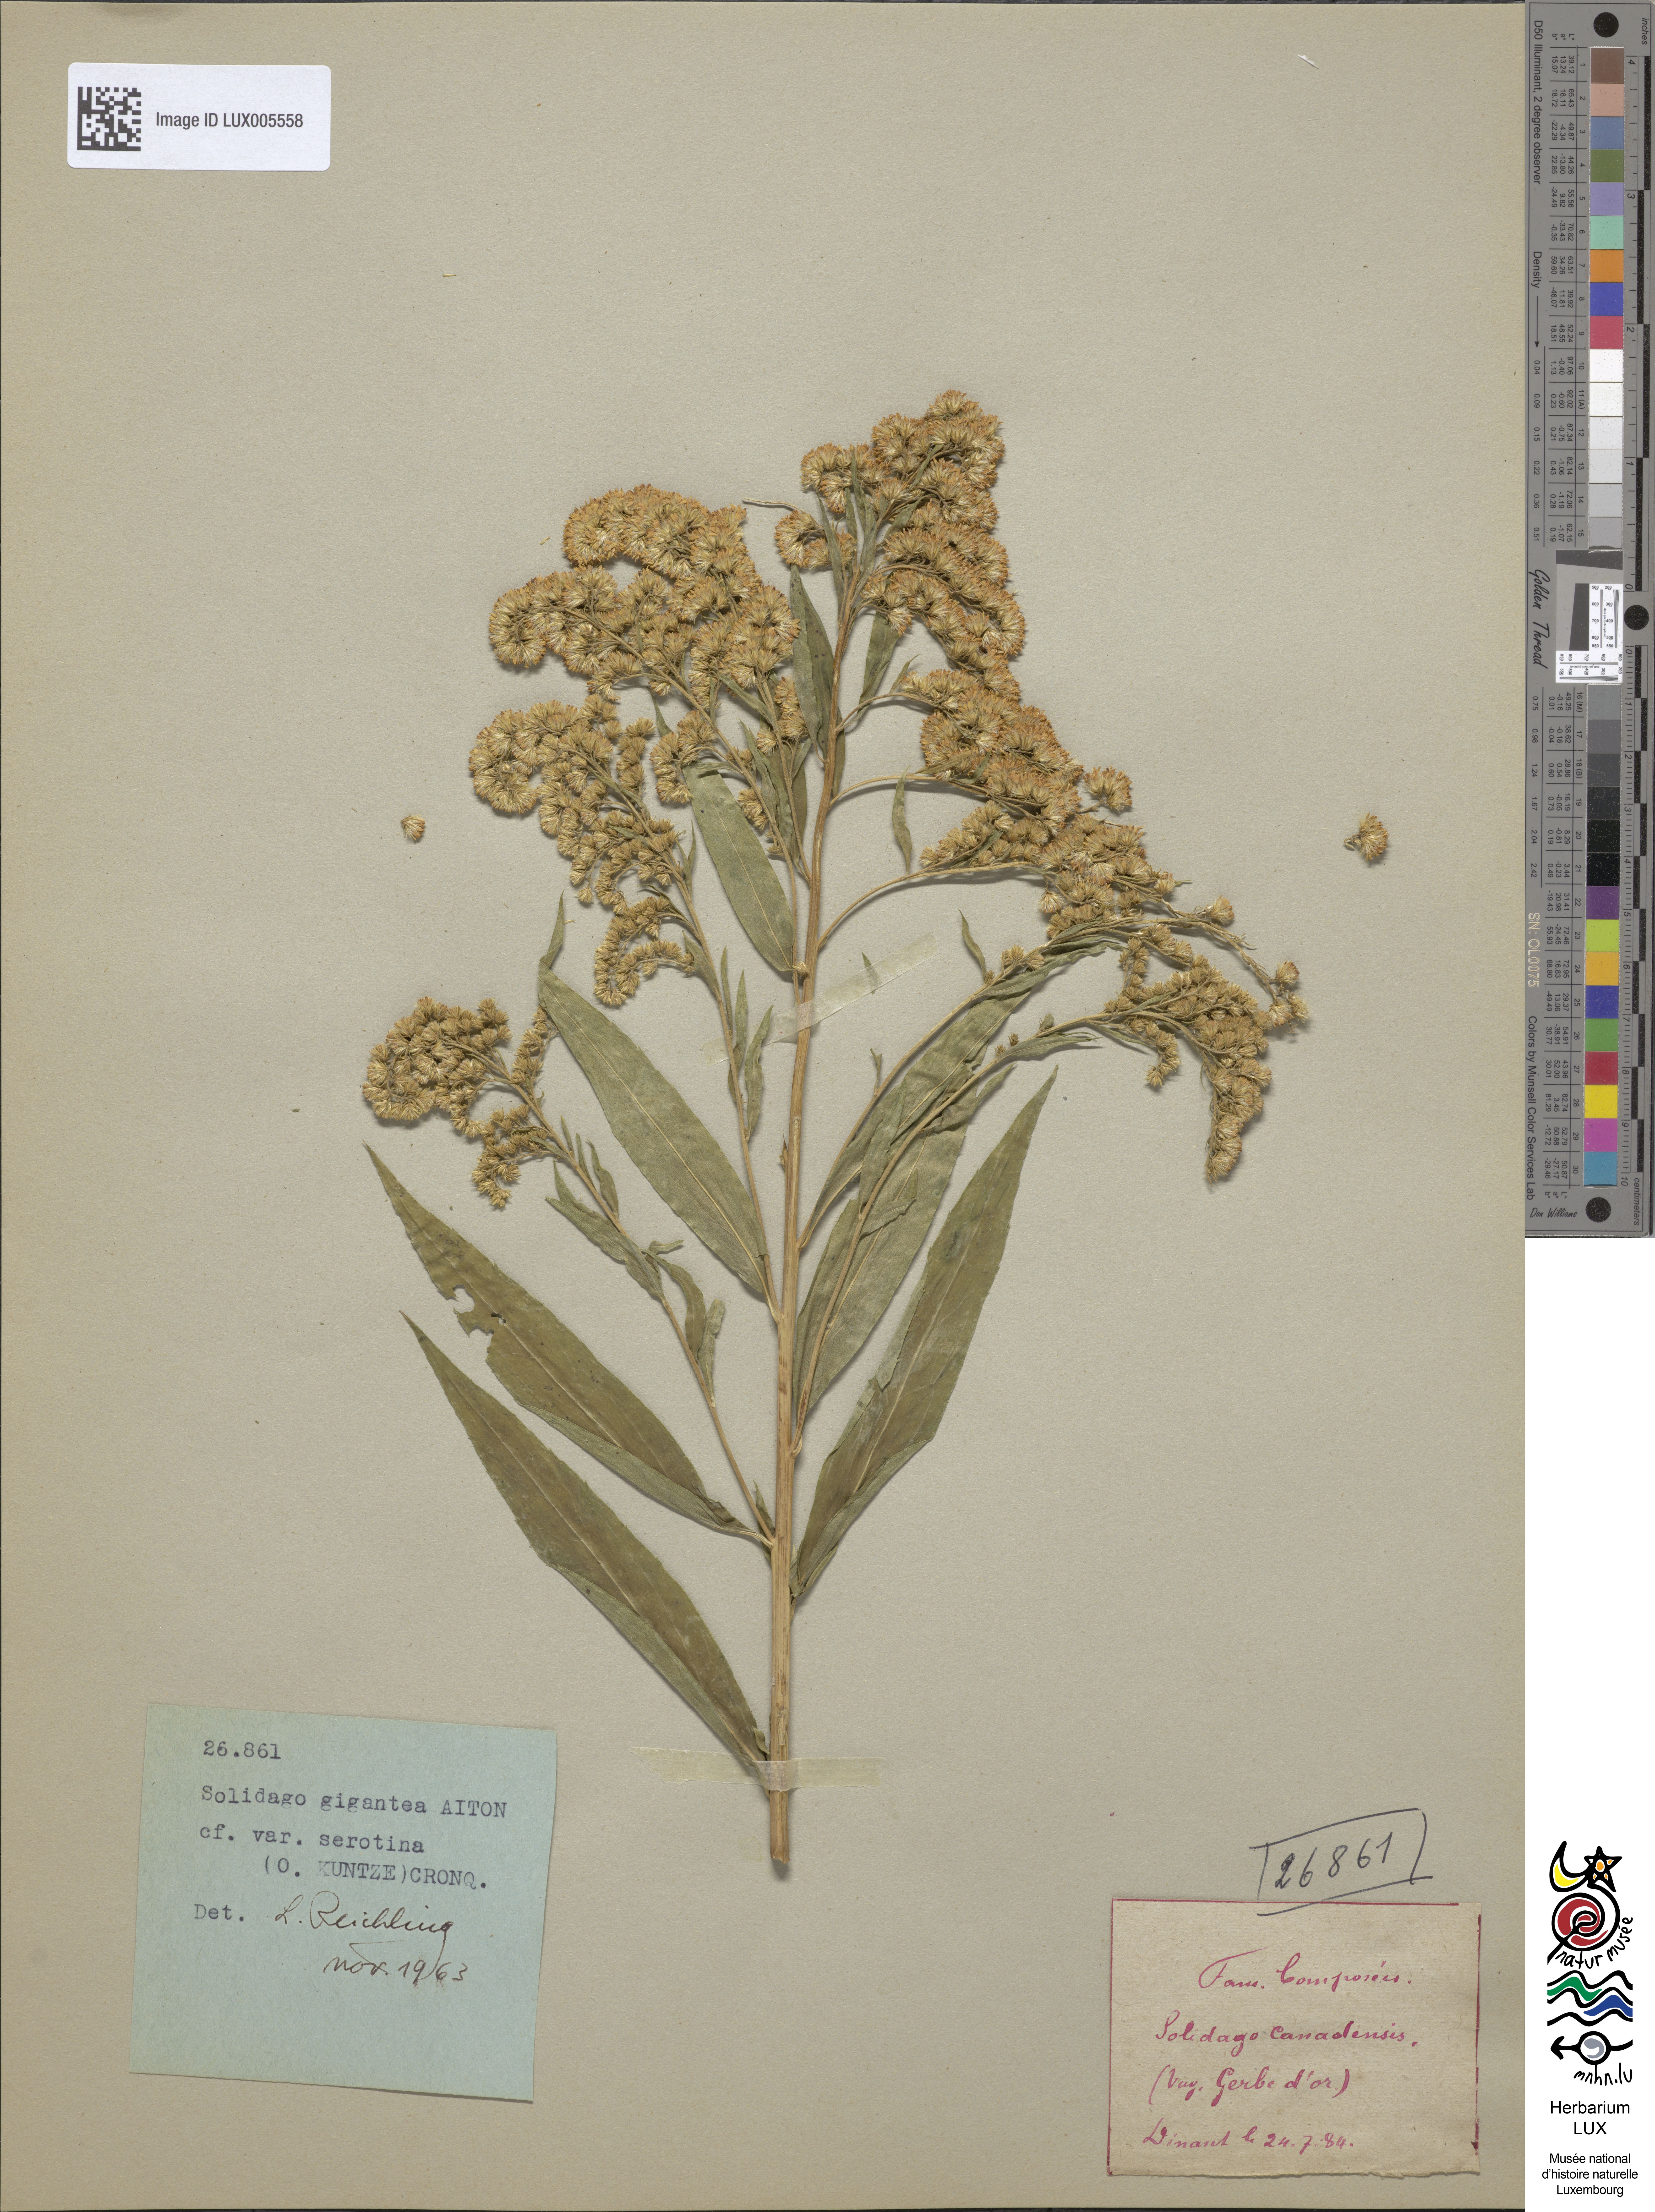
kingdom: Plantae
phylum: Tracheophyta
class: Magnoliopsida
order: Asterales
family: Asteraceae
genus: Solidago
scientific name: Solidago canadensis
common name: Canada goldenrod
